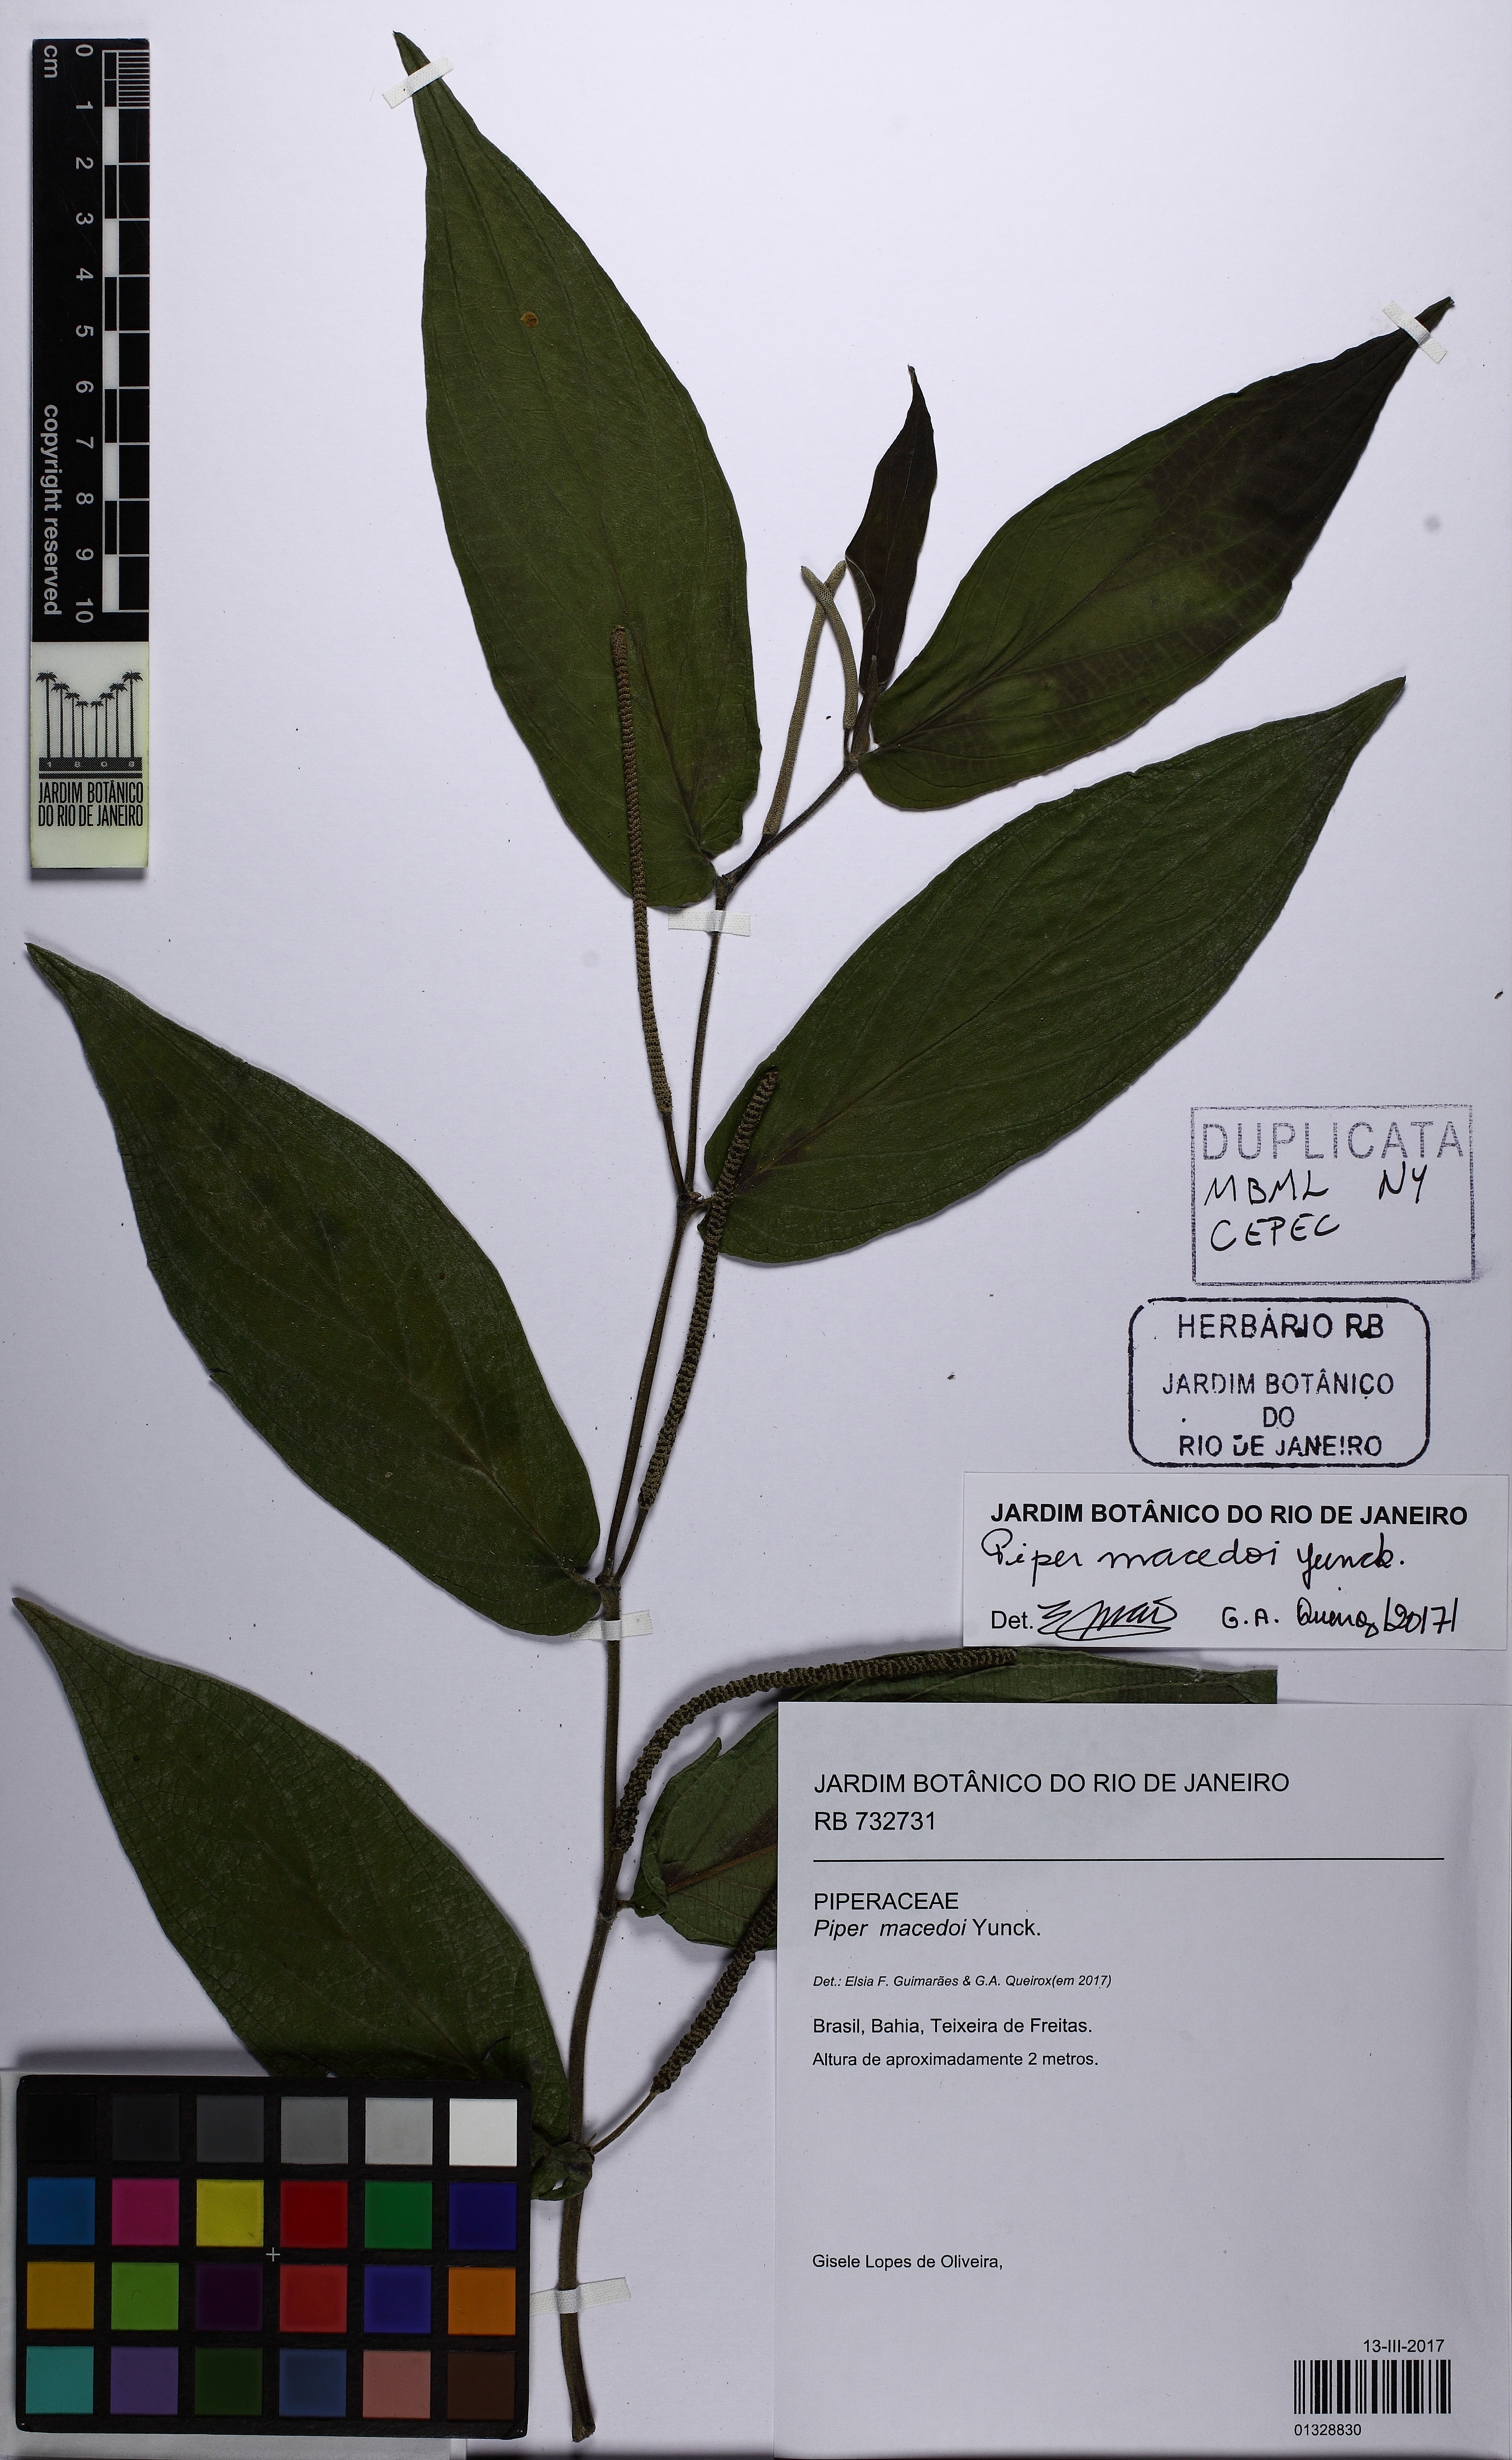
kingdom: Plantae
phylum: Tracheophyta
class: Magnoliopsida
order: Piperales
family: Piperaceae
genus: Piper
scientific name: Piper macedoi
